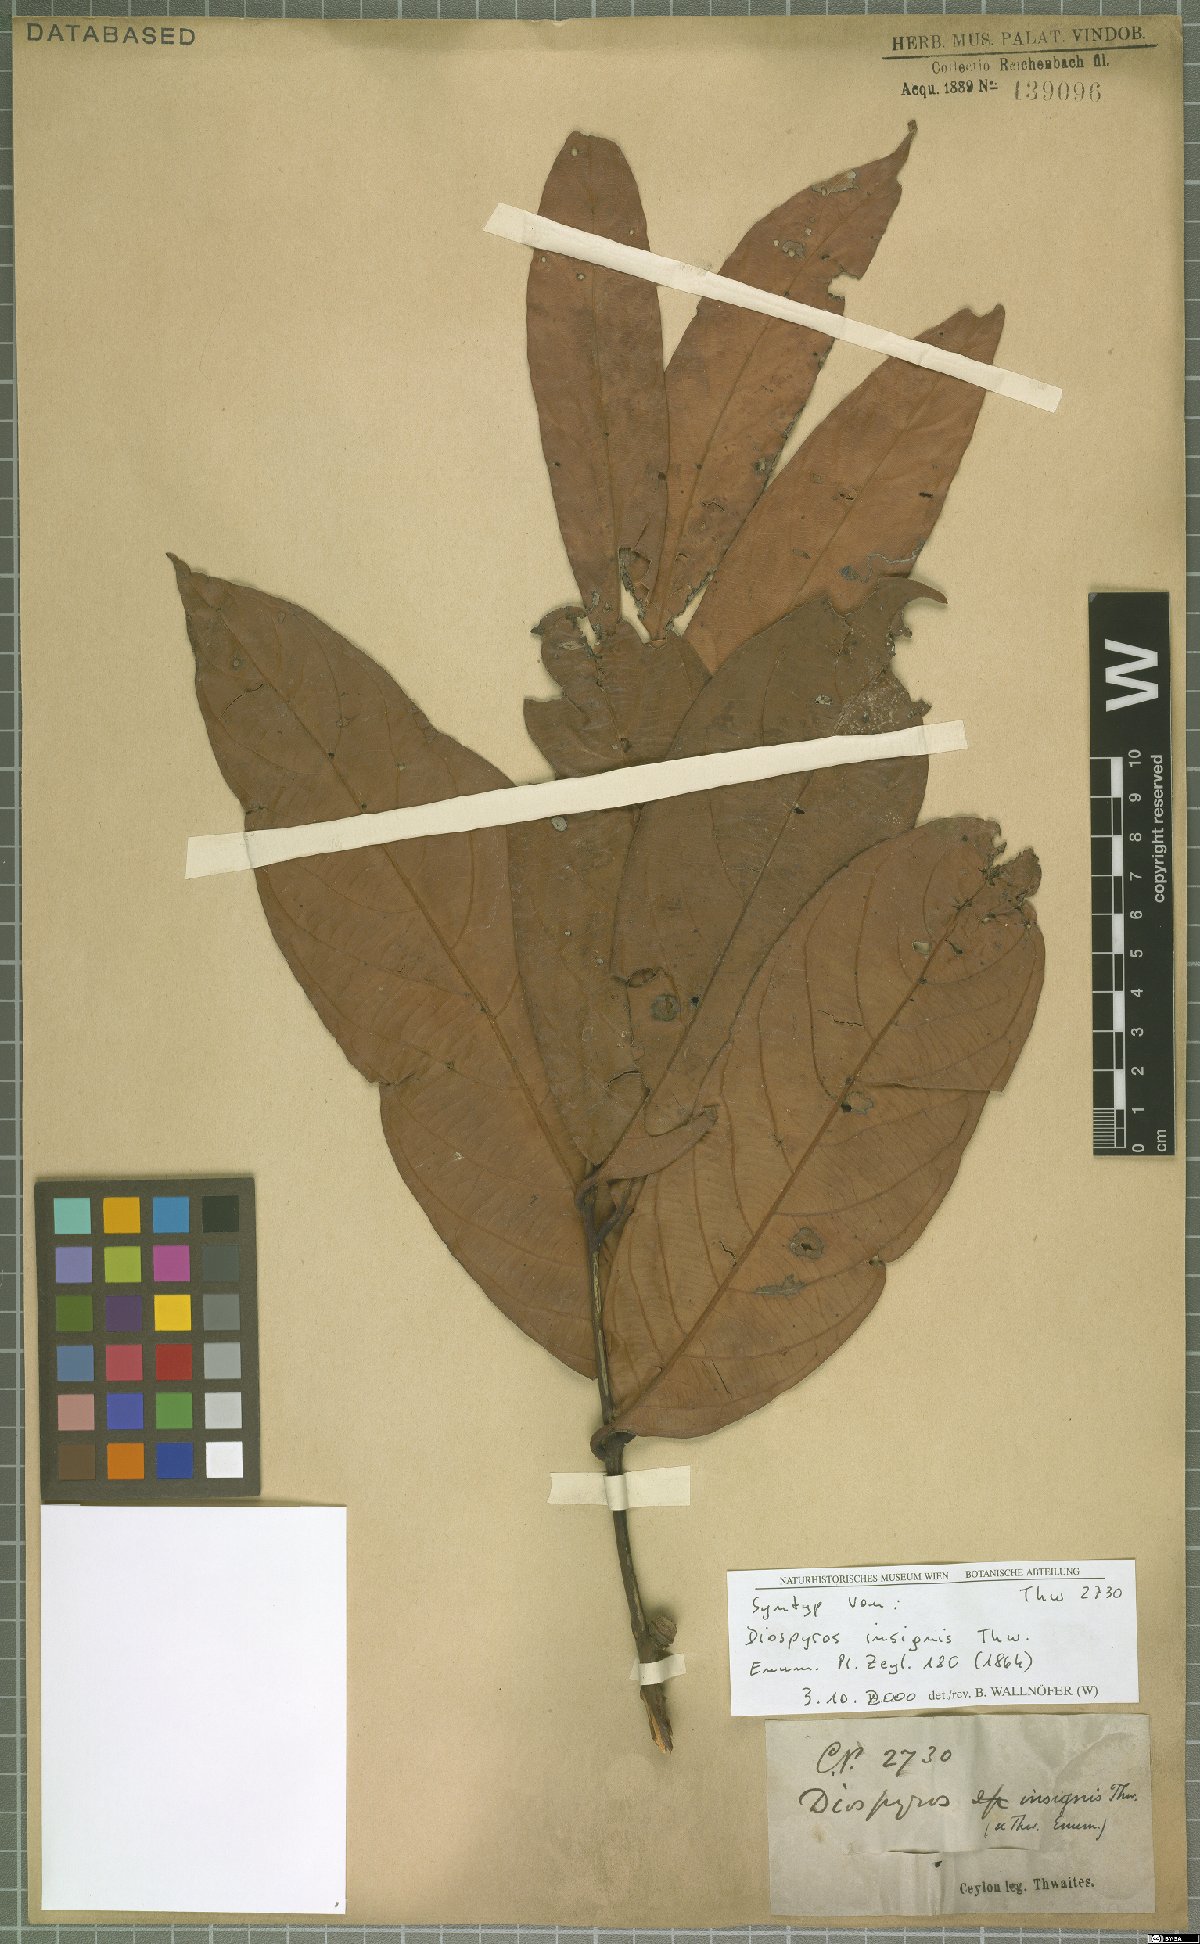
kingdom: Plantae
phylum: Tracheophyta
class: Magnoliopsida
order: Ericales
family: Ebenaceae
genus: Diospyros
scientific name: Diospyros insignis
